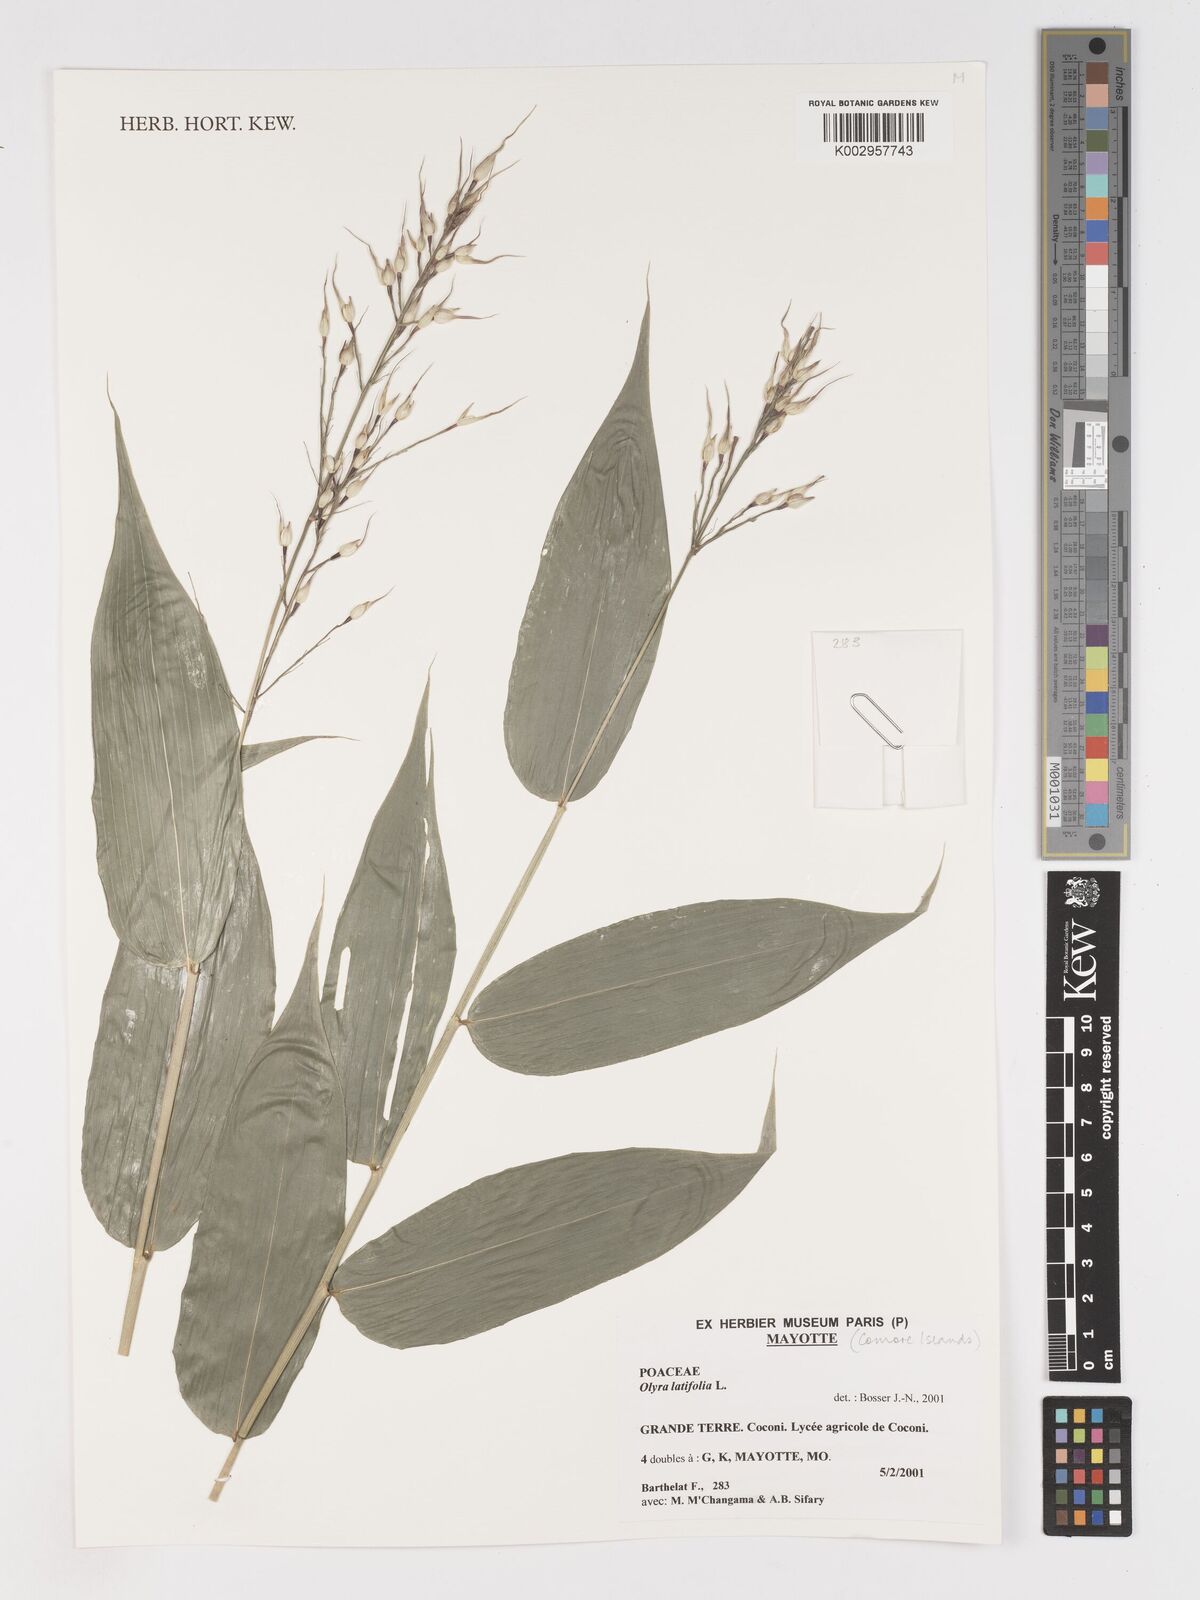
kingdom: Plantae
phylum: Tracheophyta
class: Liliopsida
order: Poales
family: Poaceae
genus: Olyra
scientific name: Olyra latifolia
